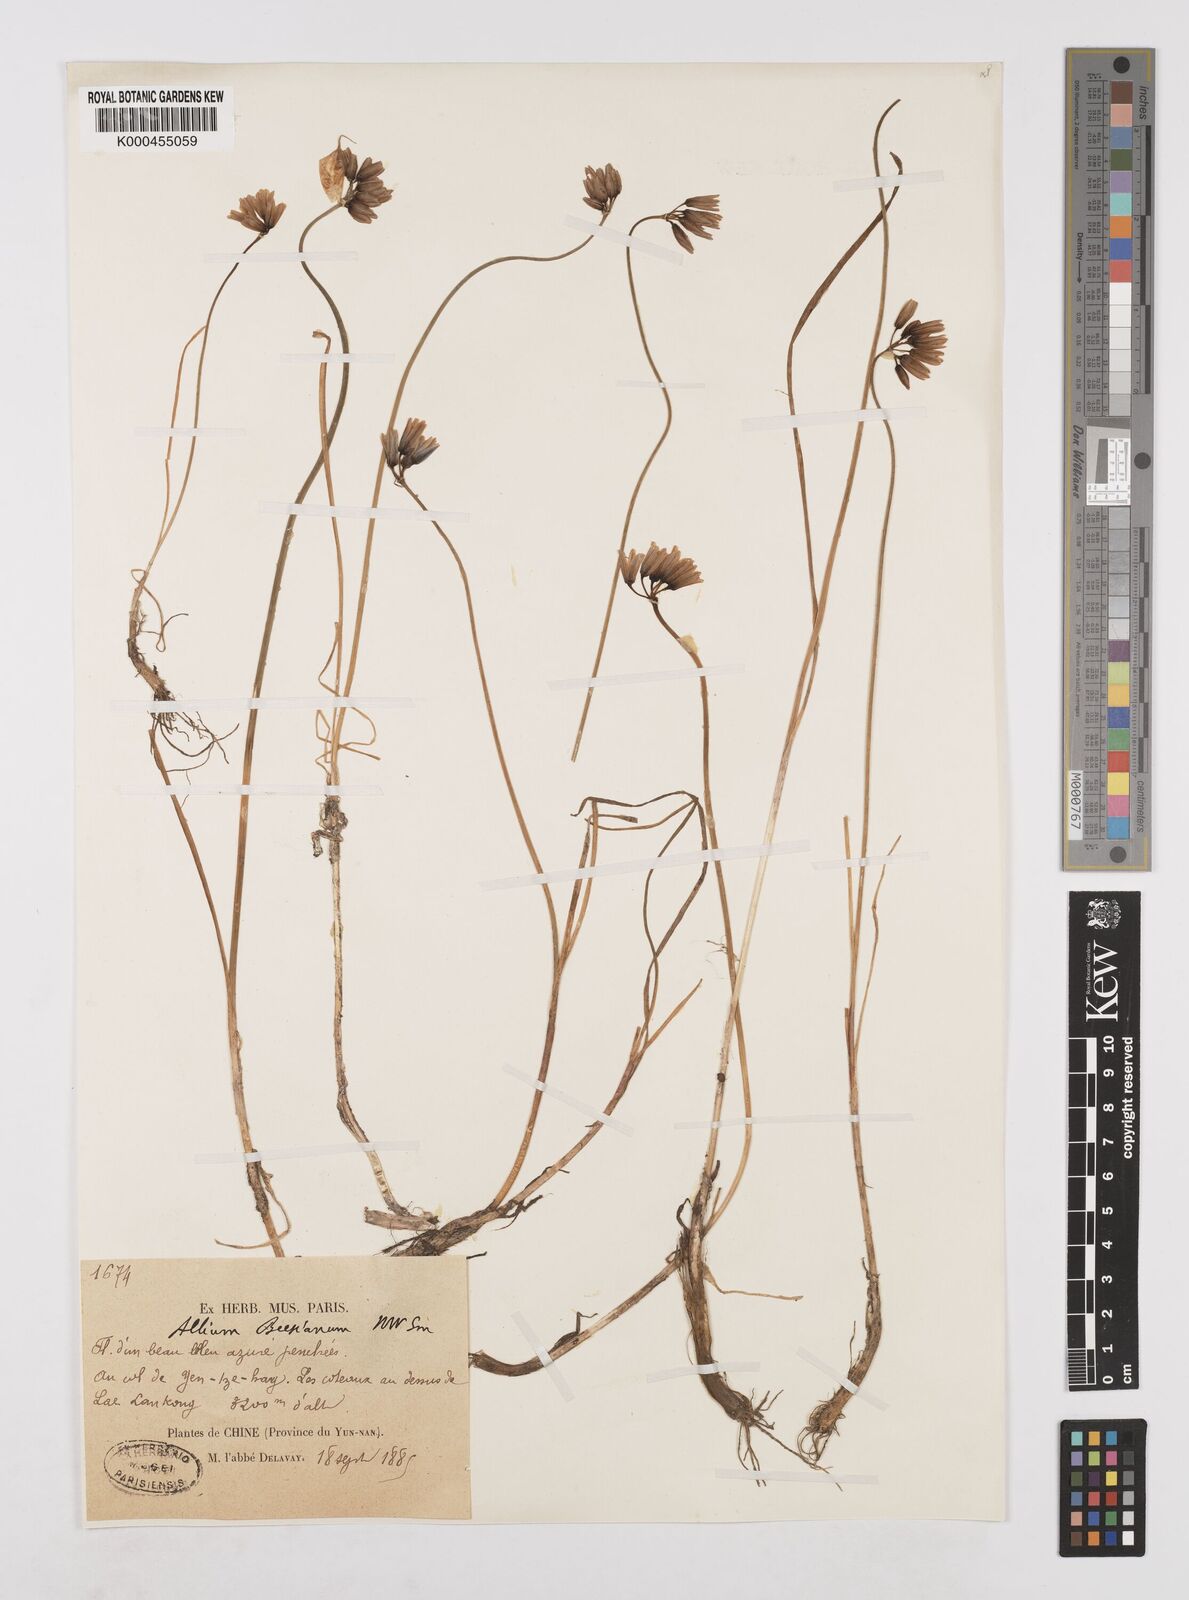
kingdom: Plantae
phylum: Tracheophyta
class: Liliopsida
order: Asparagales
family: Amaryllidaceae
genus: Allium
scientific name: Allium beesianum
